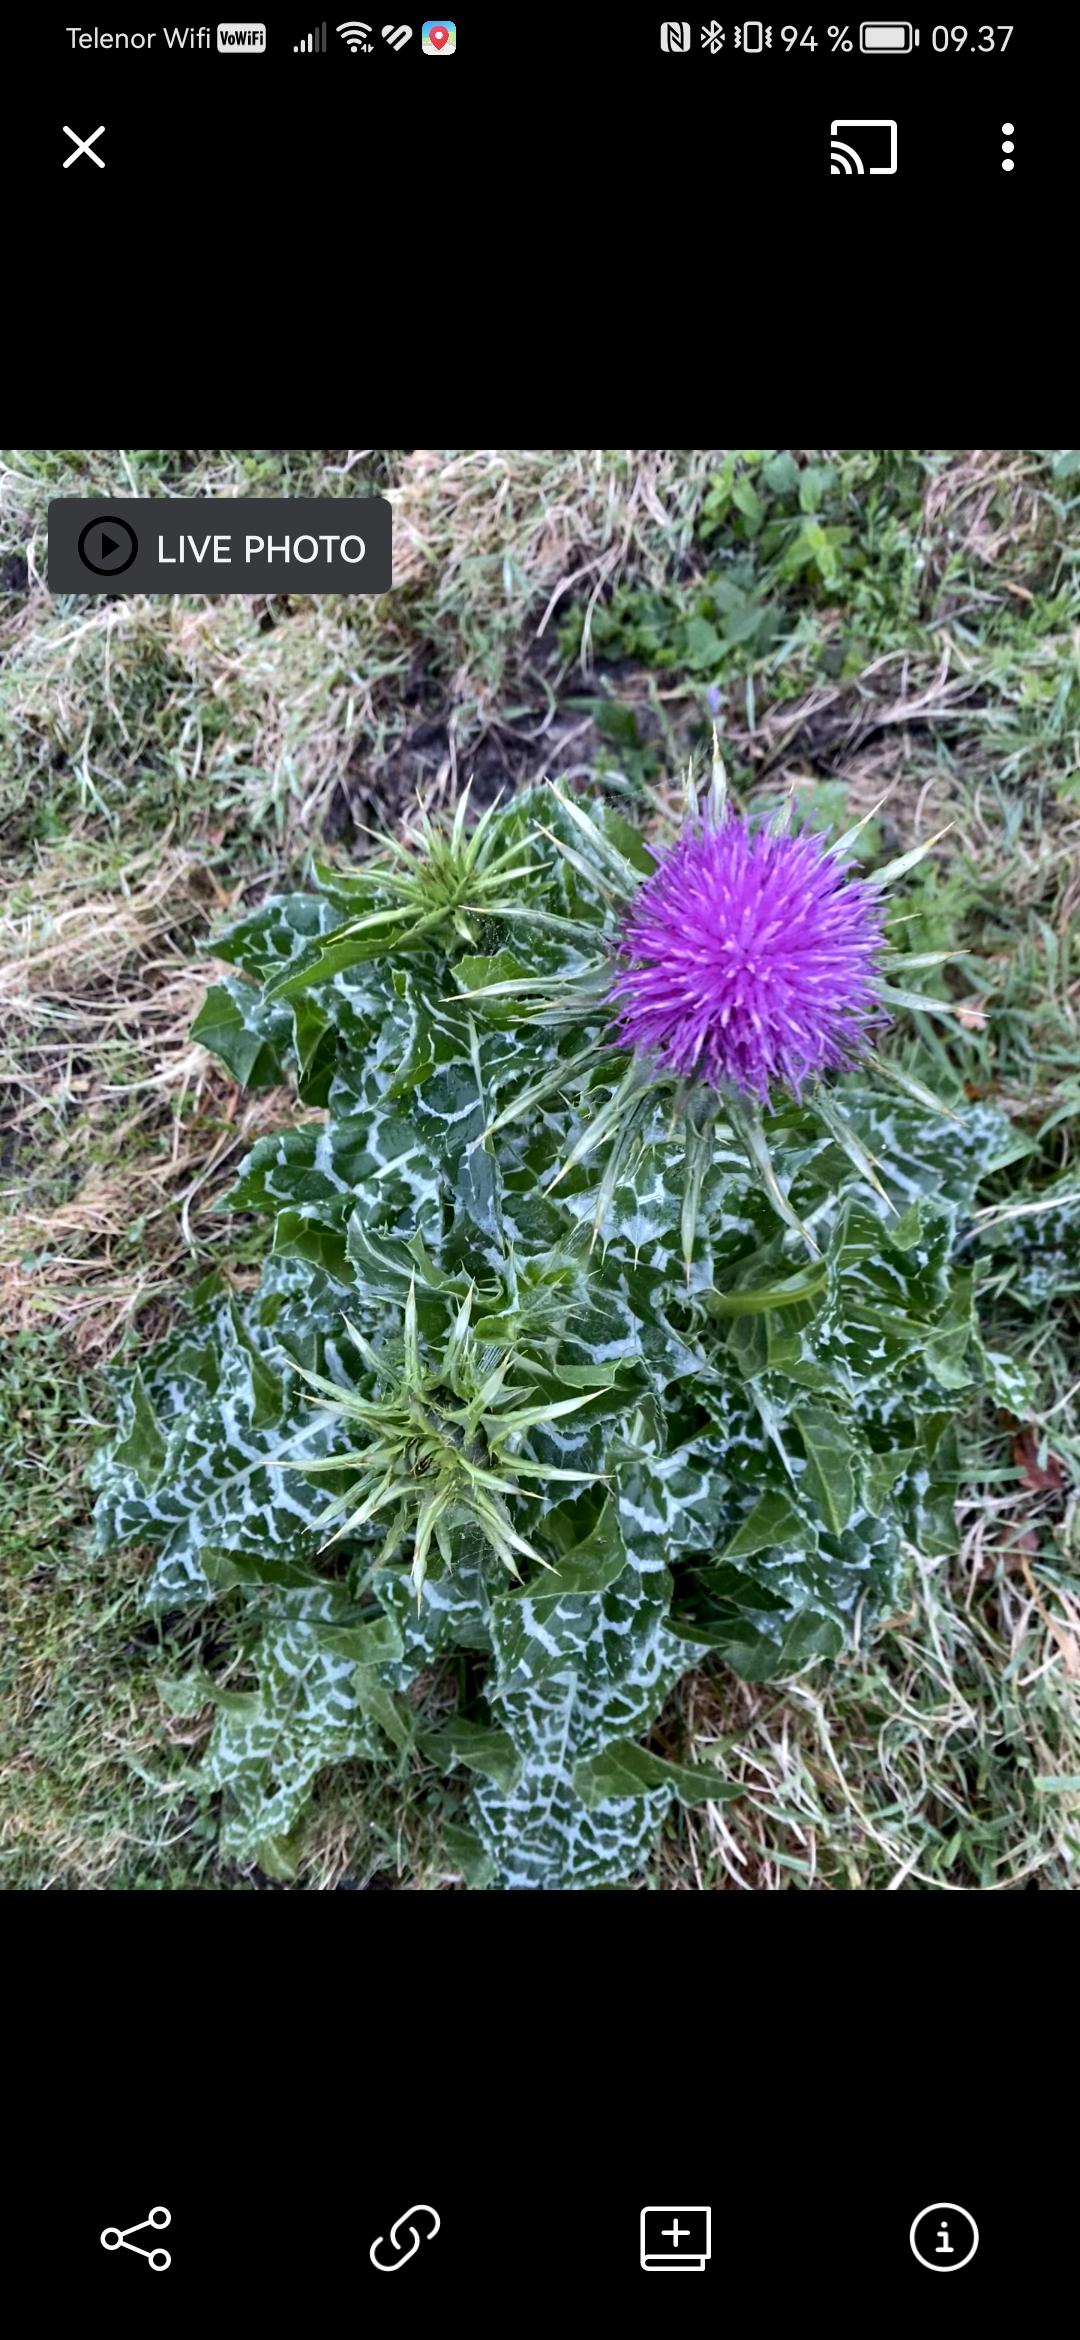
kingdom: Plantae
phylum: Tracheophyta
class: Magnoliopsida
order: Asterales
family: Asteraceae
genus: Silybum
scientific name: Silybum marianum
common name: Marietidsel
